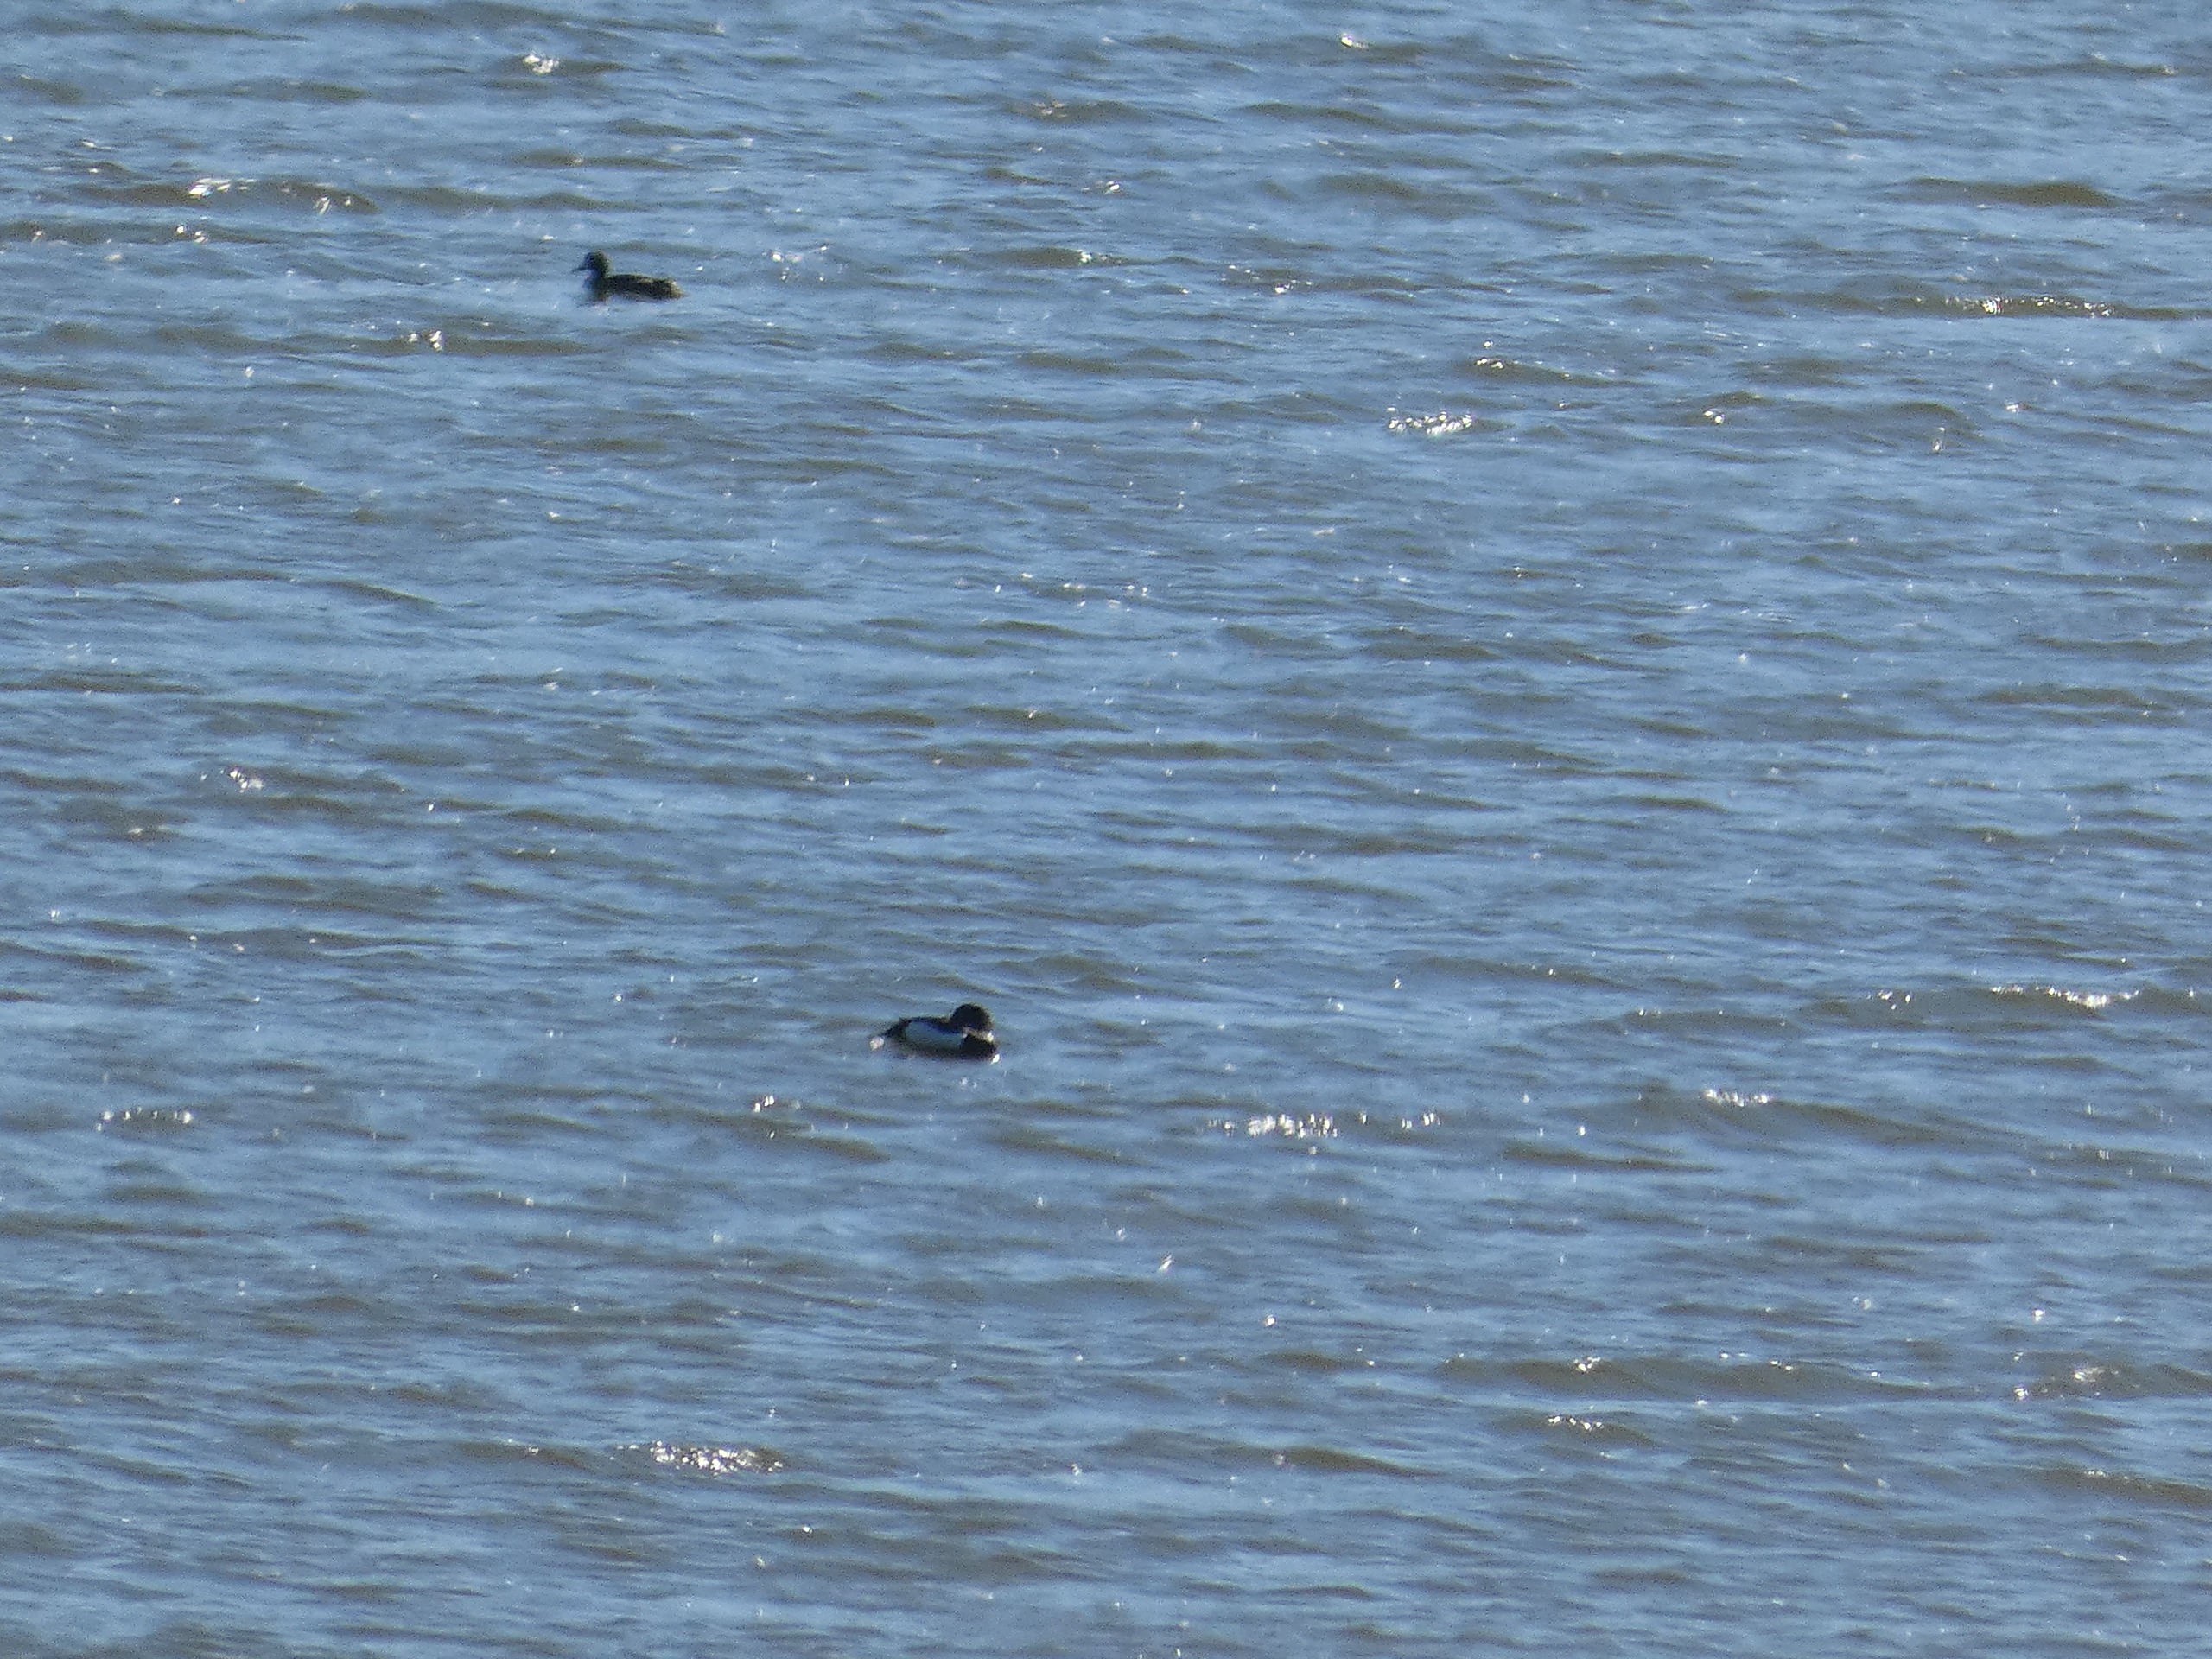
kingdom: Animalia
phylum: Chordata
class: Aves
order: Anseriformes
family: Anatidae
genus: Aythya
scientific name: Aythya fuligula
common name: Troldand
